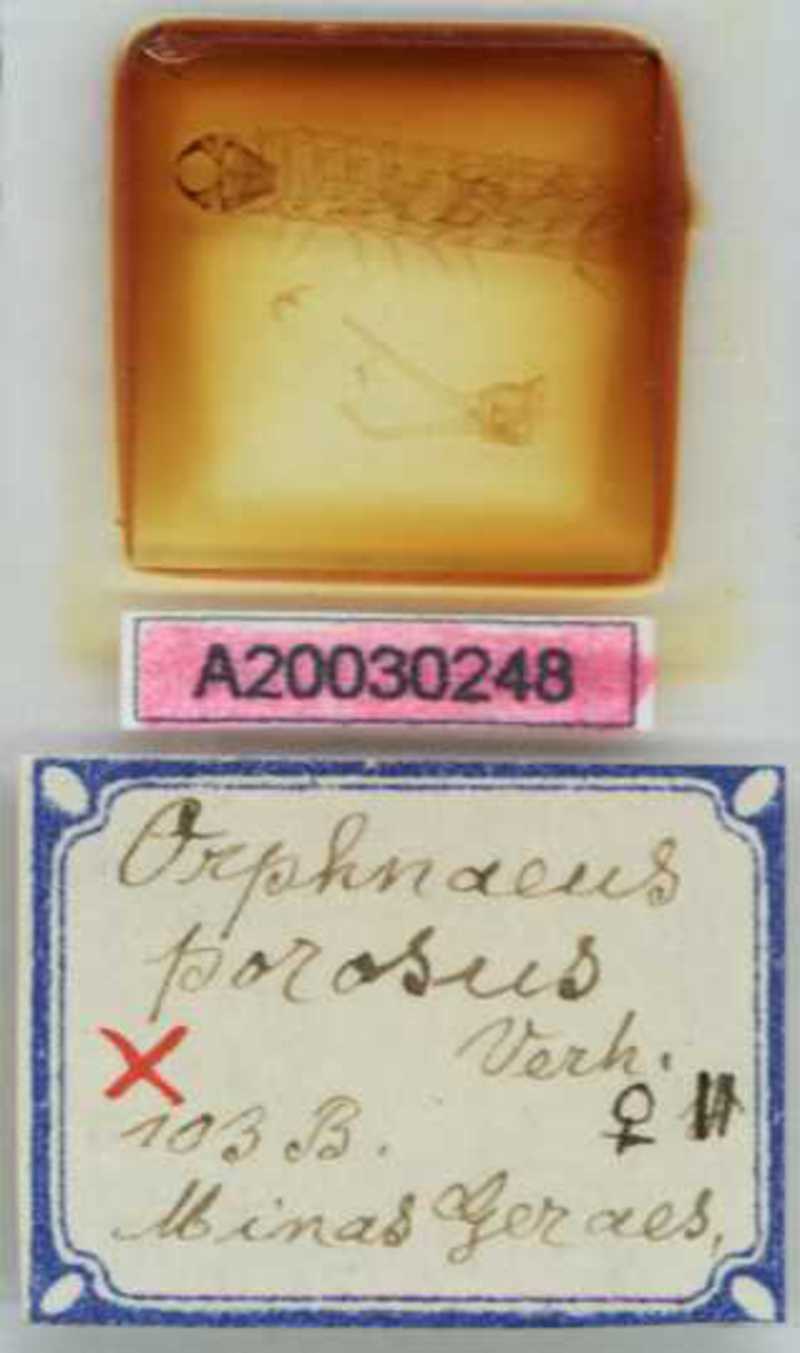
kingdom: Animalia
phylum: Arthropoda
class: Chilopoda
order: Geophilomorpha
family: Oryidae
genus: Orphnaeus
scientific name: Orphnaeus porosus
